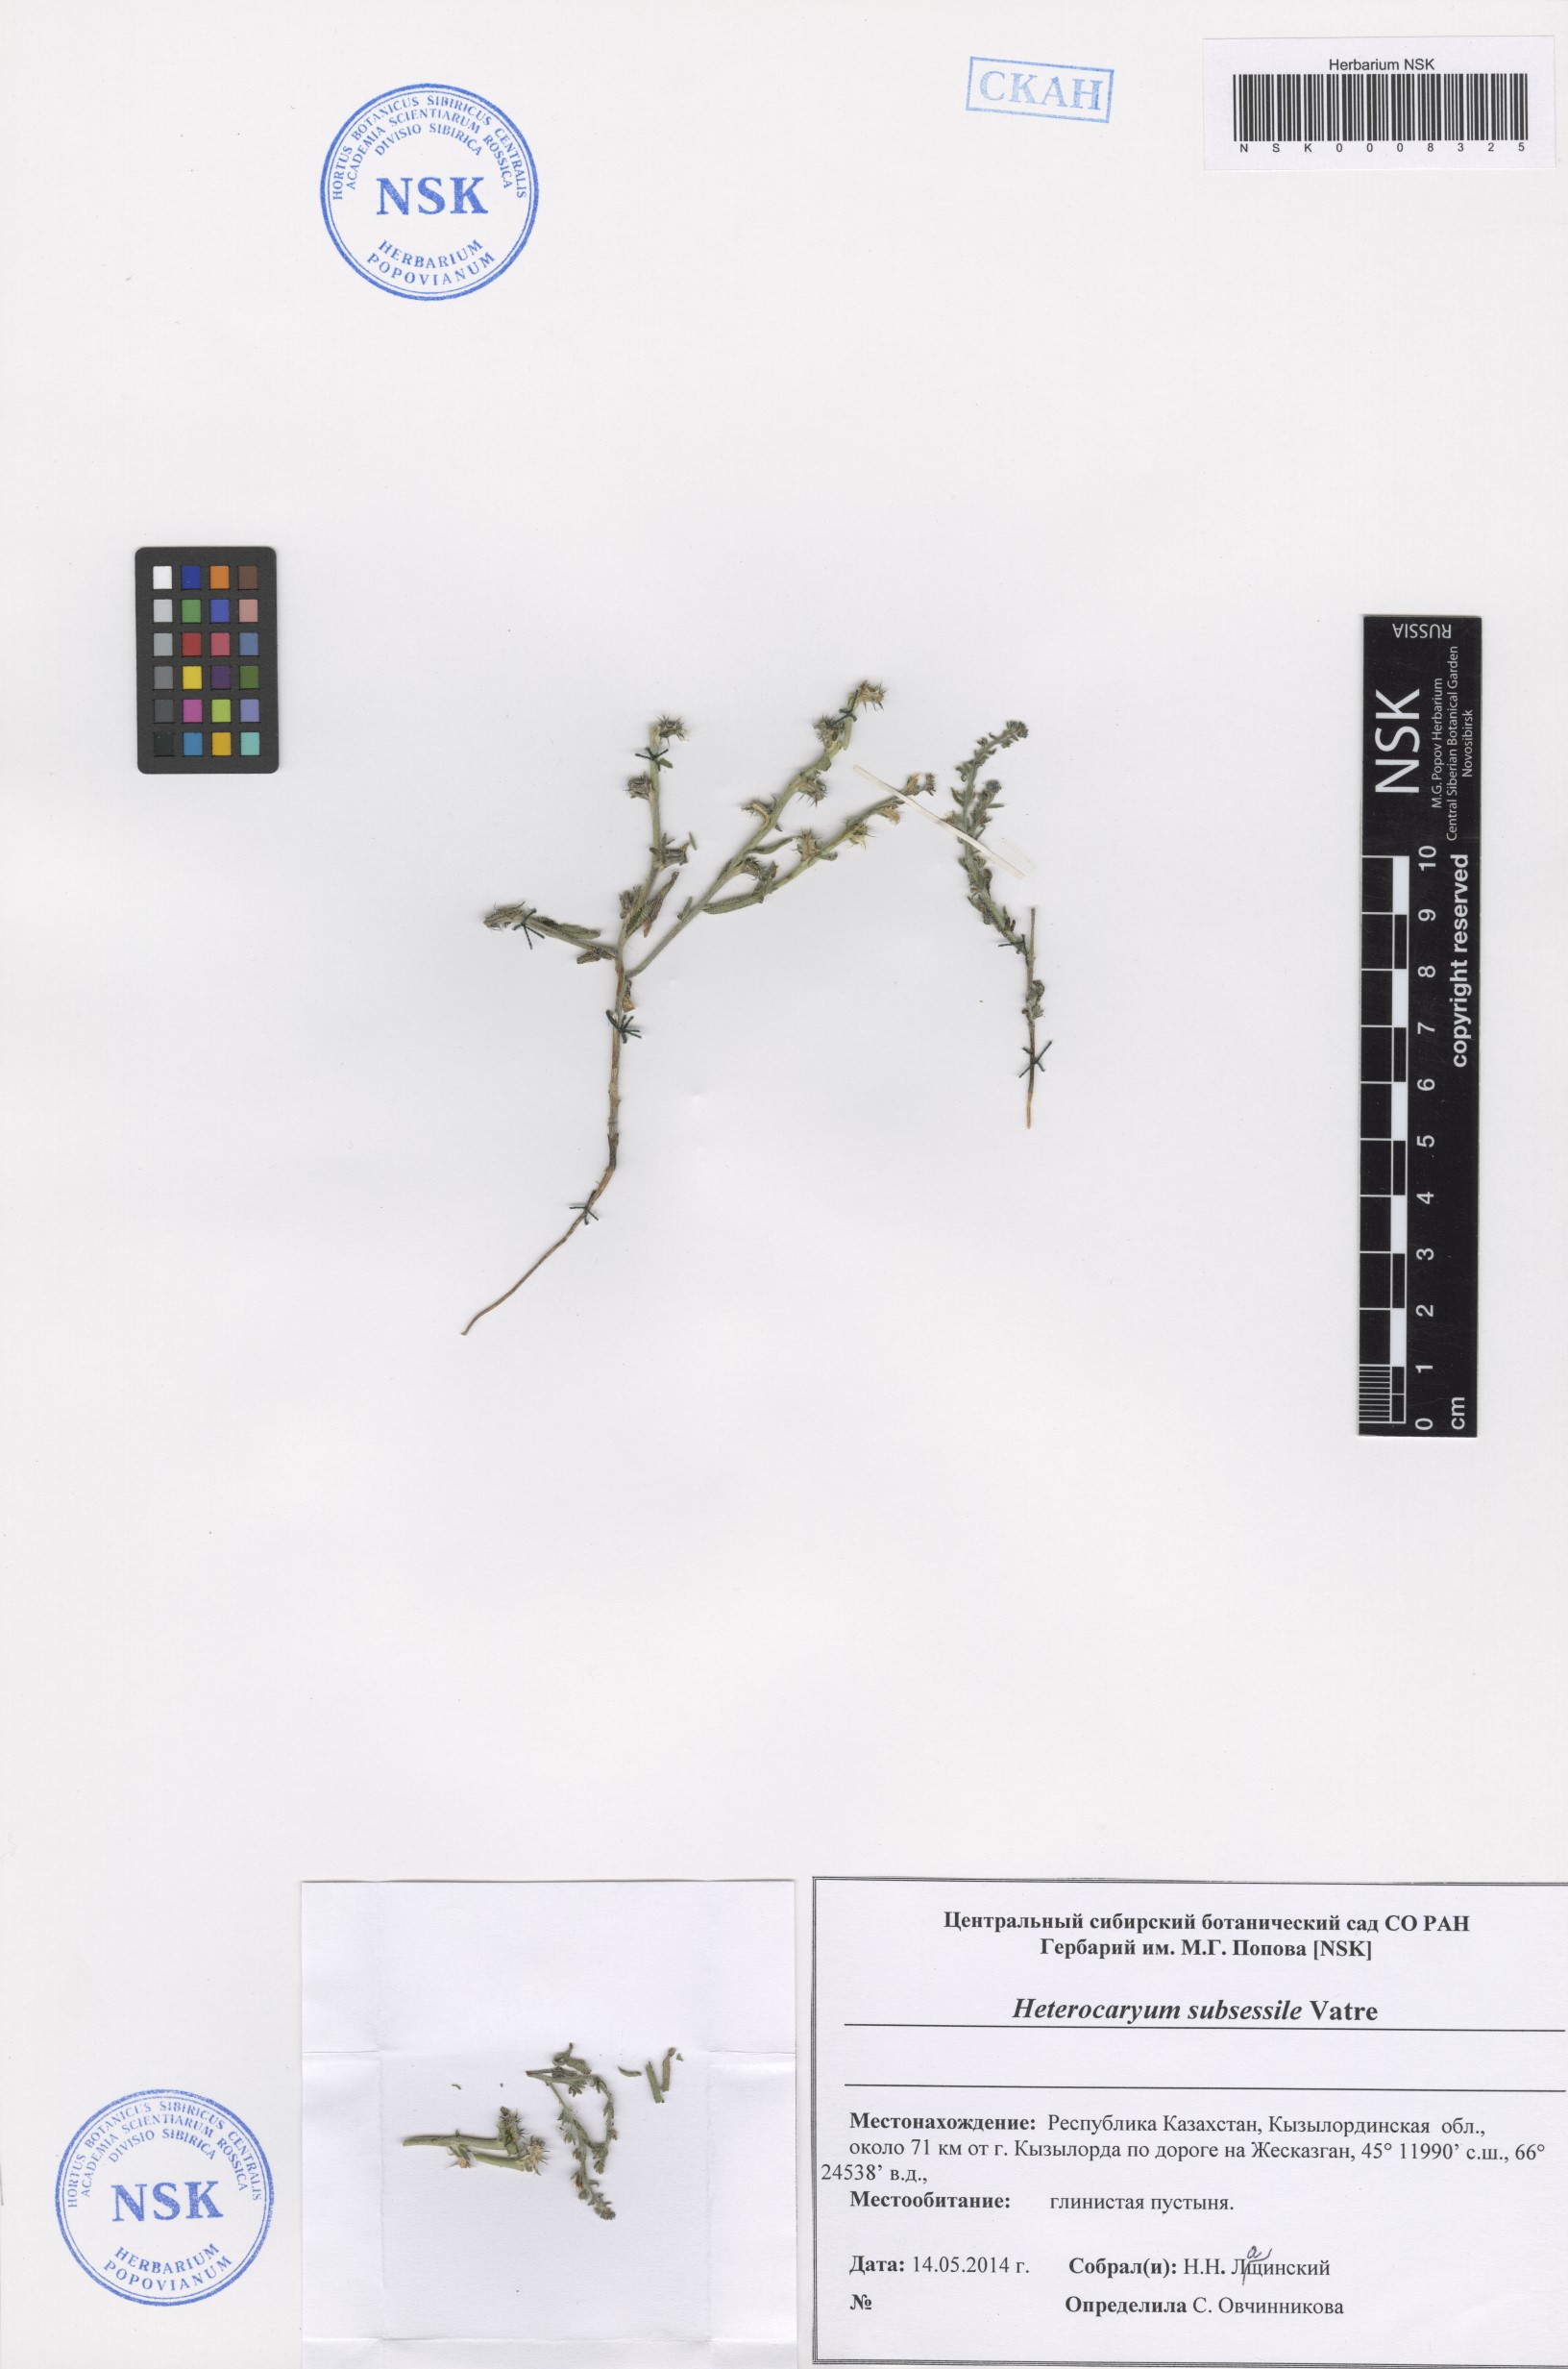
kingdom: Plantae
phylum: Tracheophyta
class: Magnoliopsida
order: Boraginales
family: Boraginaceae
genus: Pseudoheterocaryum
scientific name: Pseudoheterocaryum subsessile
